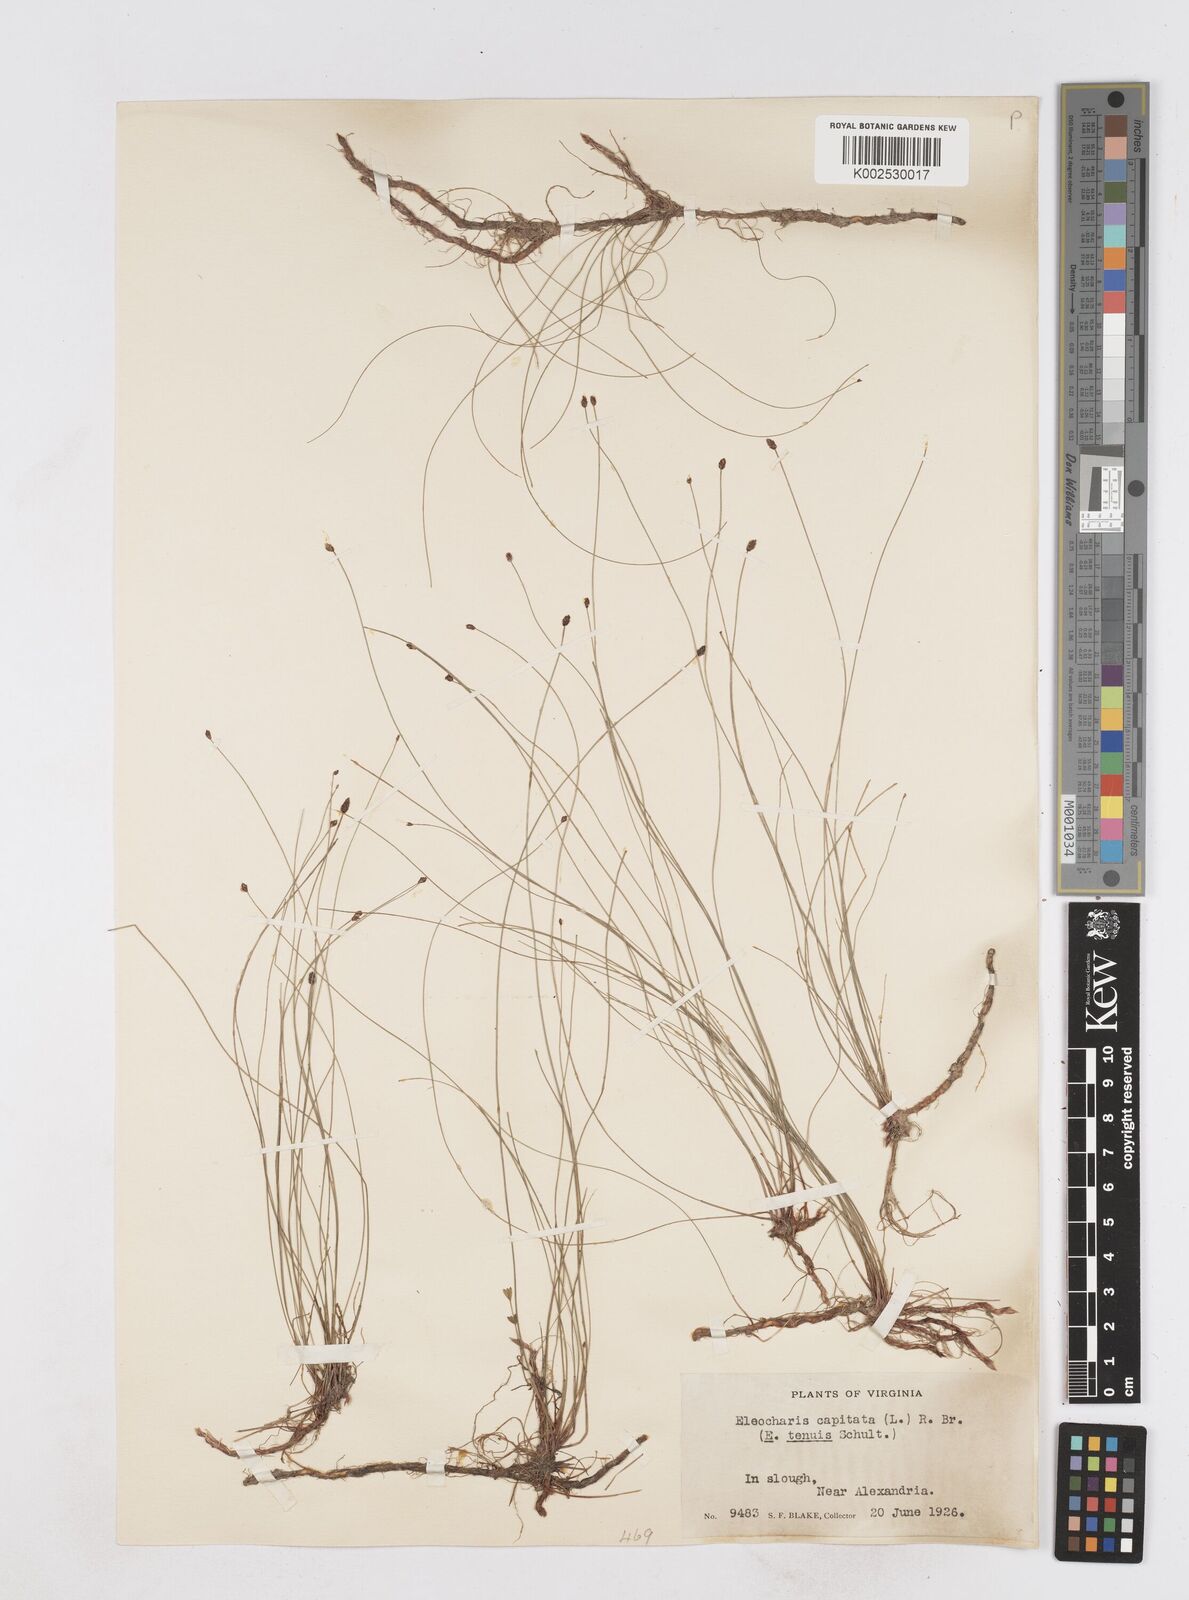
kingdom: Plantae
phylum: Tracheophyta
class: Liliopsida
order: Poales
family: Cyperaceae
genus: Eleocharis
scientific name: Eleocharis geniculata
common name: Canada spikesedge
